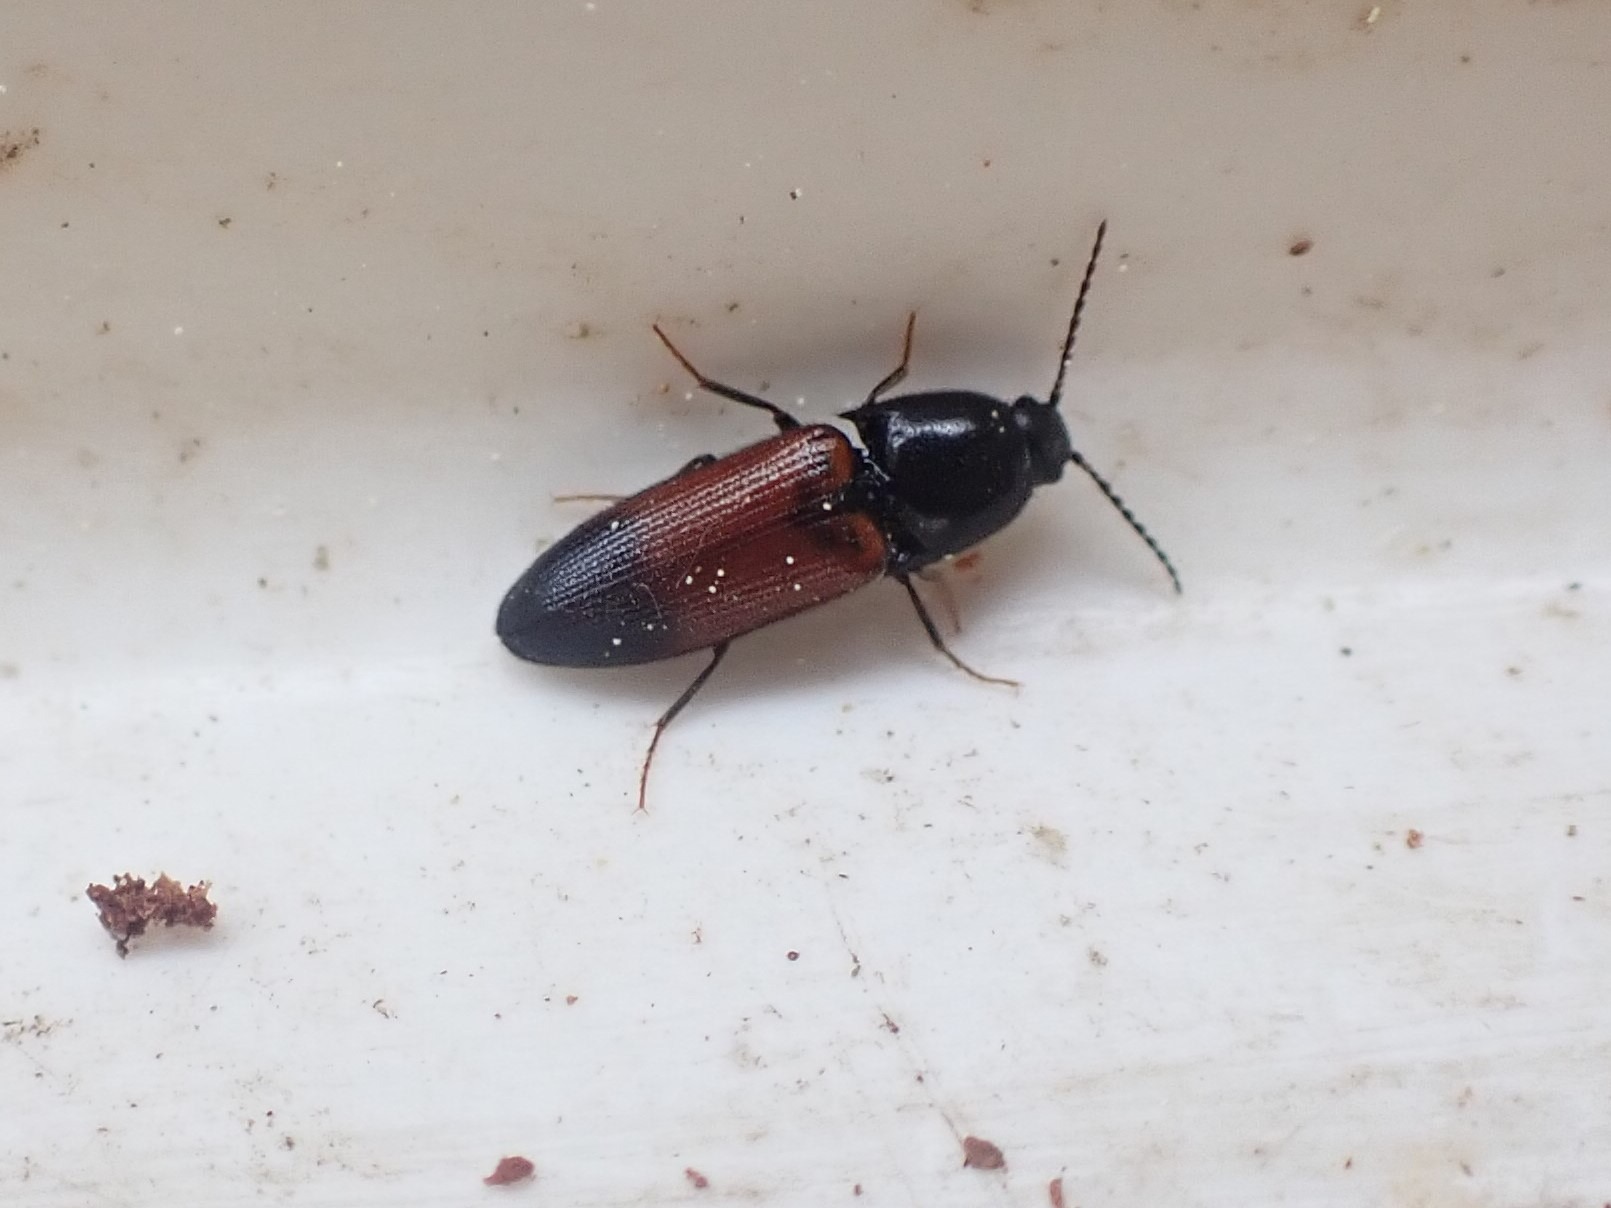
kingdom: Animalia
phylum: Arthropoda
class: Insecta
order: Coleoptera
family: Elateridae
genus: Ampedus
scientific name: Ampedus balteatus
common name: Tvefarvet skovsmælder
